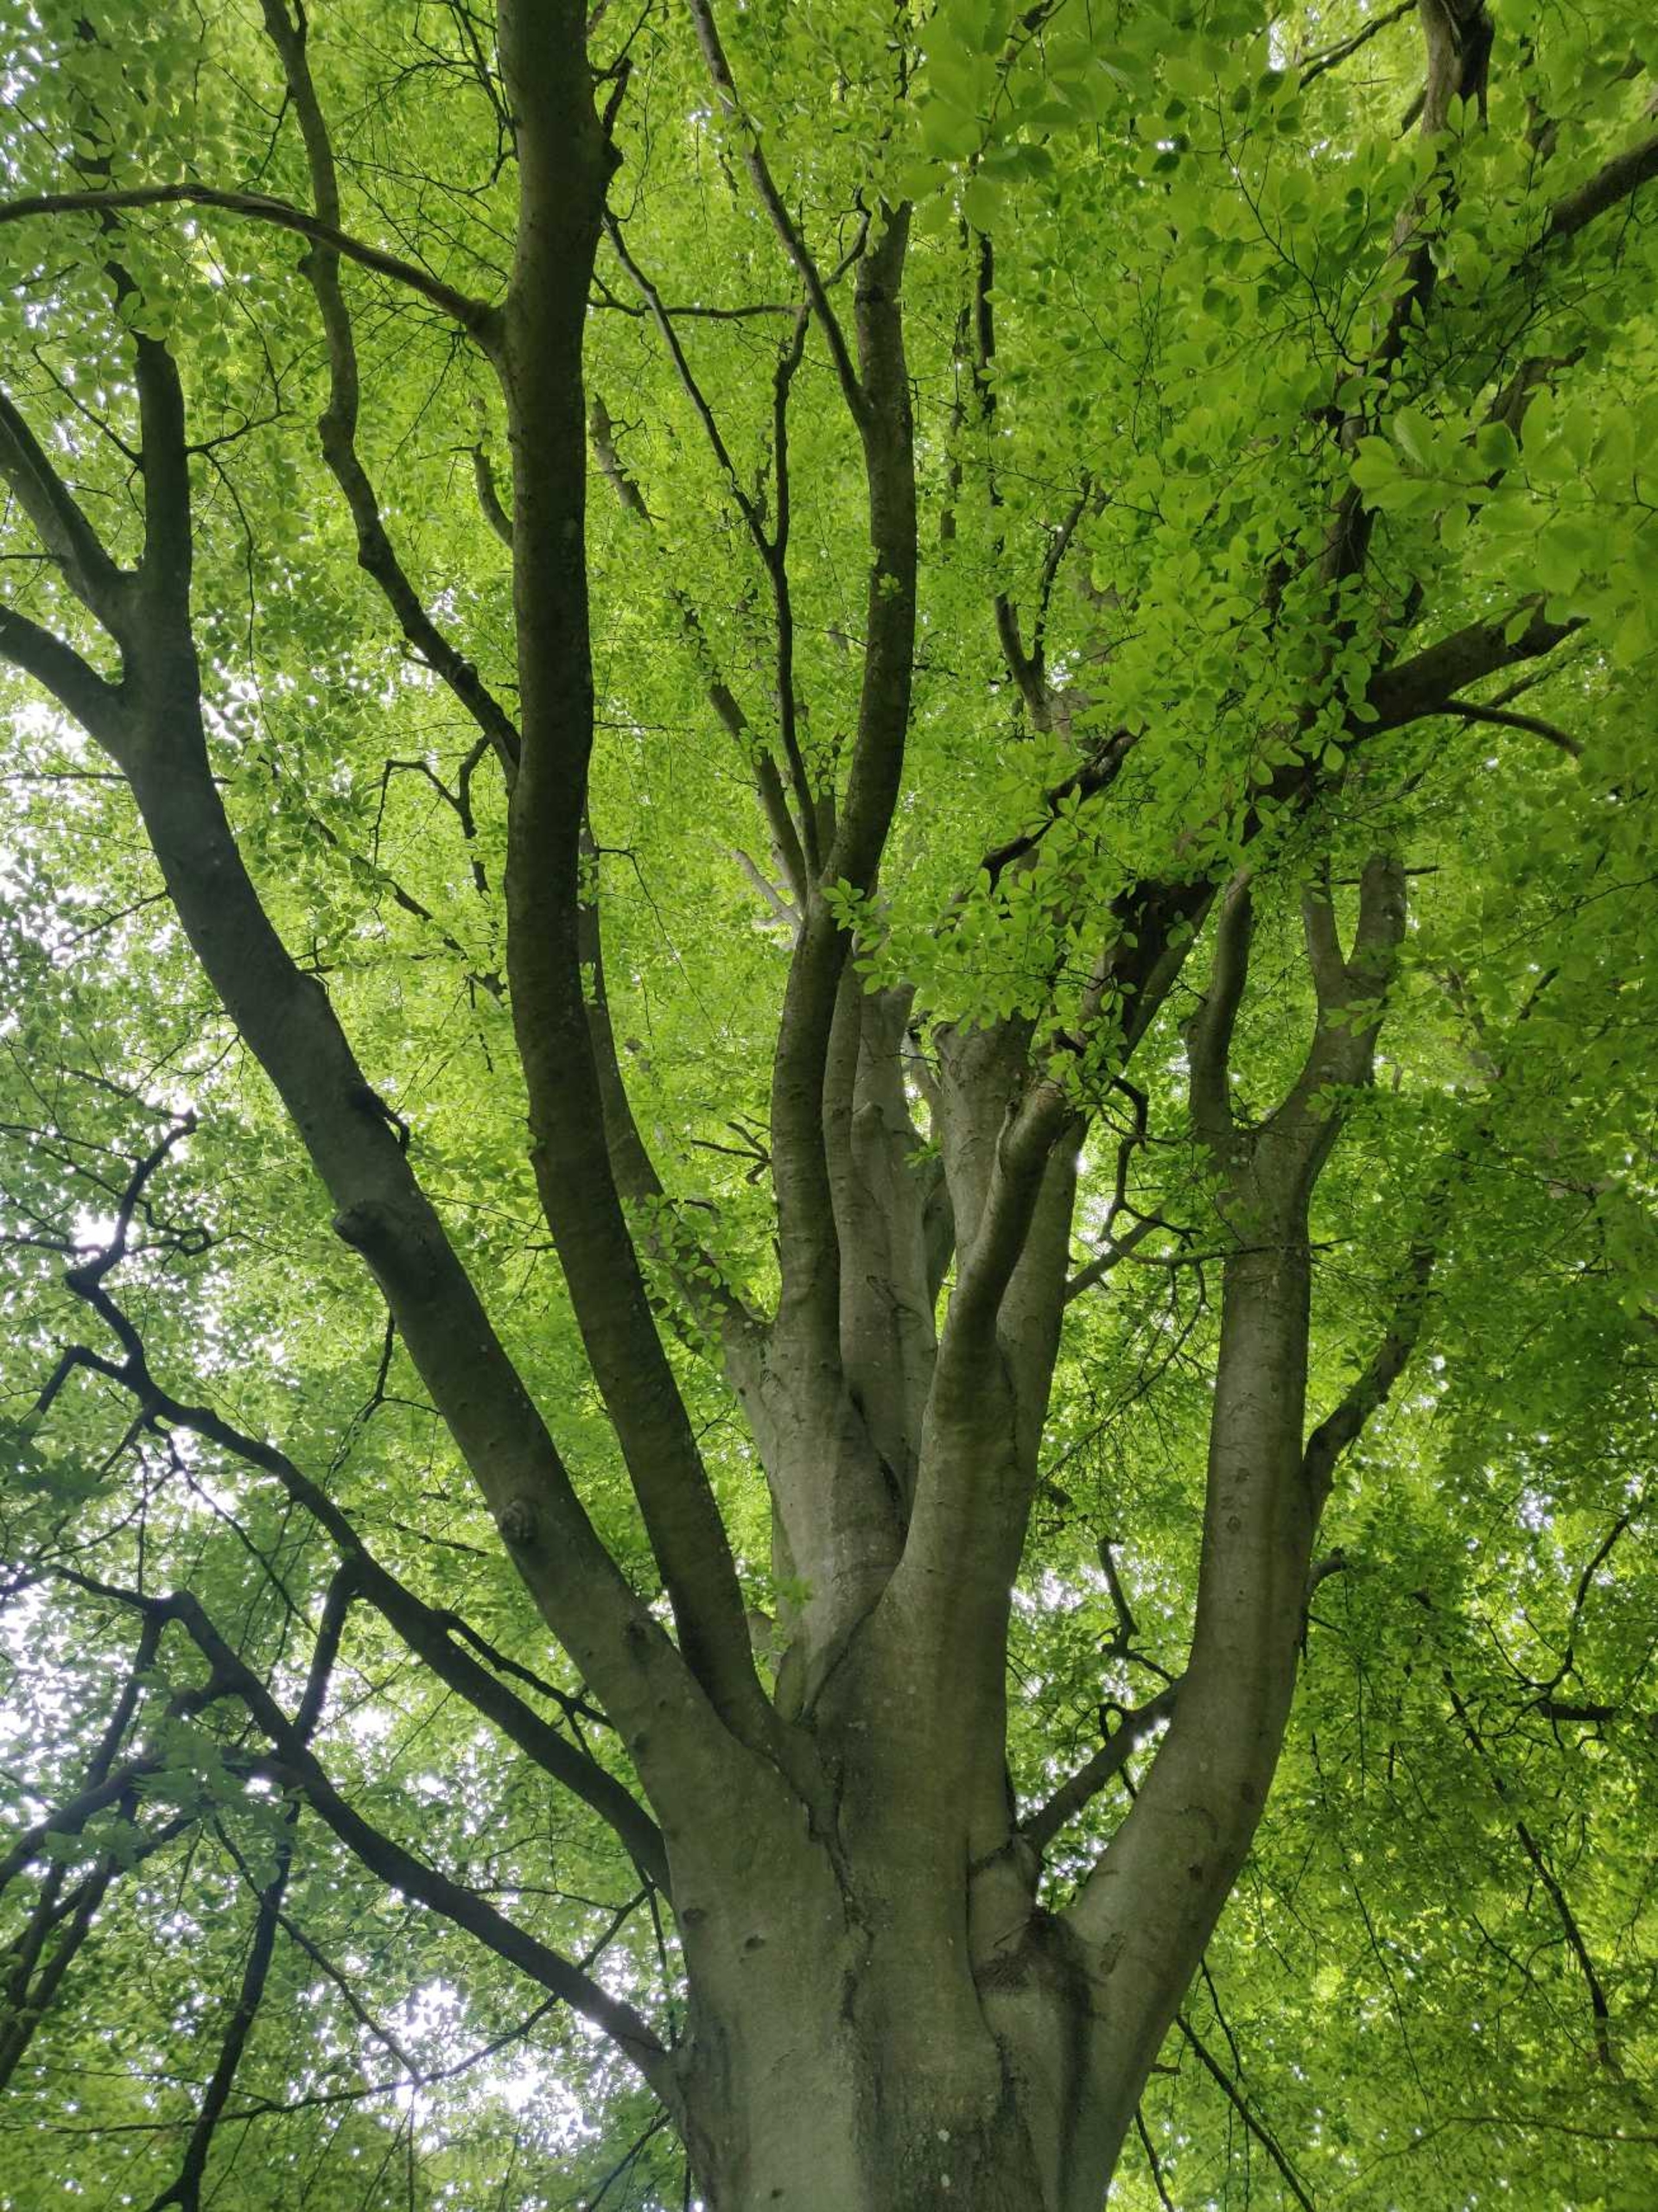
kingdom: Plantae
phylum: Tracheophyta
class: Magnoliopsida
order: Fagales
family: Fagaceae
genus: Fagus
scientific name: Fagus sylvatica
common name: Bøg
